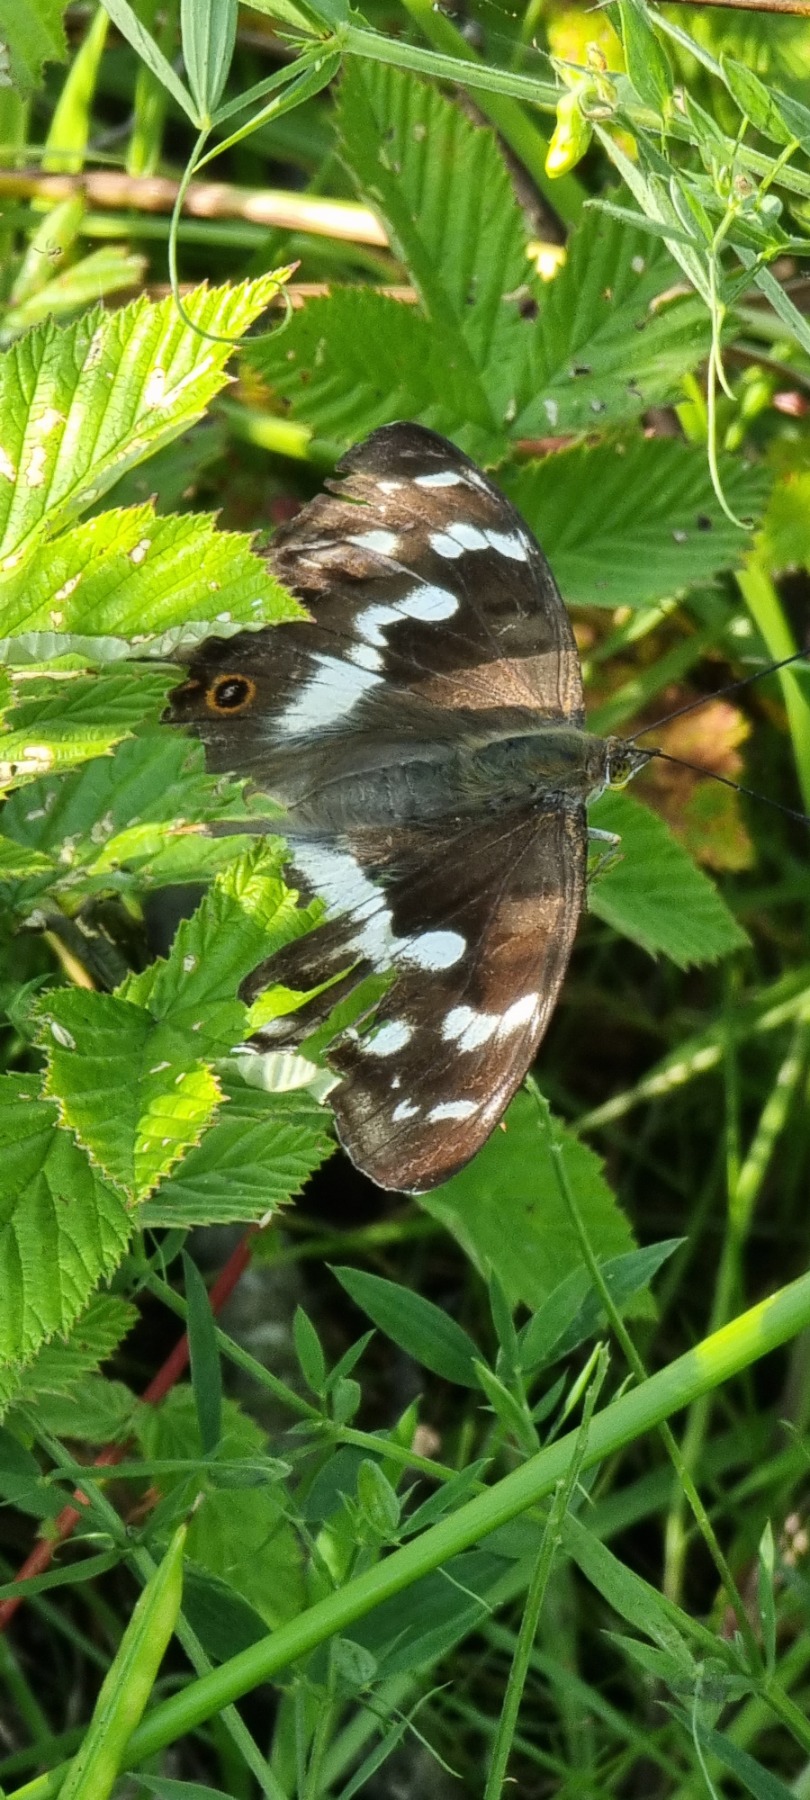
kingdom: Animalia
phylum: Arthropoda
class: Insecta
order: Lepidoptera
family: Nymphalidae
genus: Apatura
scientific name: Apatura iris
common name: Iris
